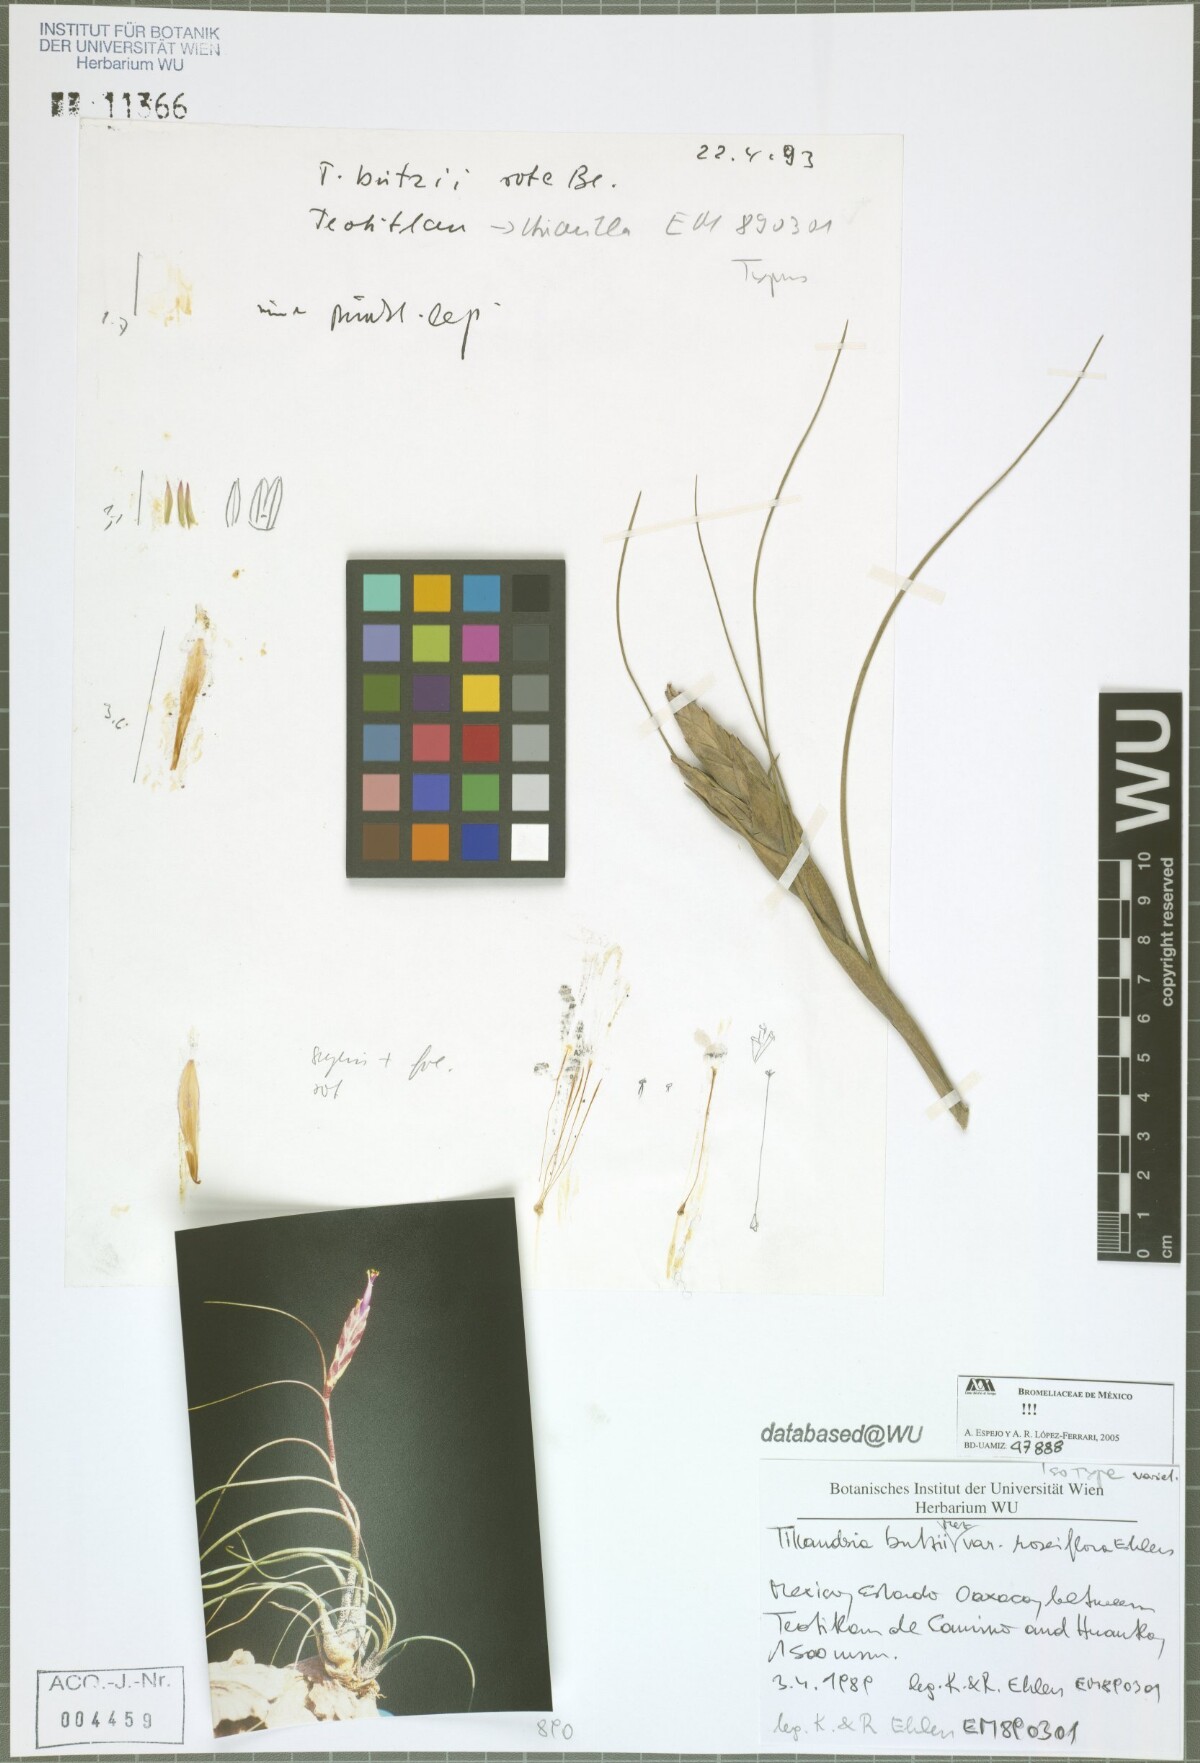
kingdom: Plantae
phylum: Tracheophyta
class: Liliopsida
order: Poales
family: Bromeliaceae
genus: Tillandsia
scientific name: Tillandsia butzii
